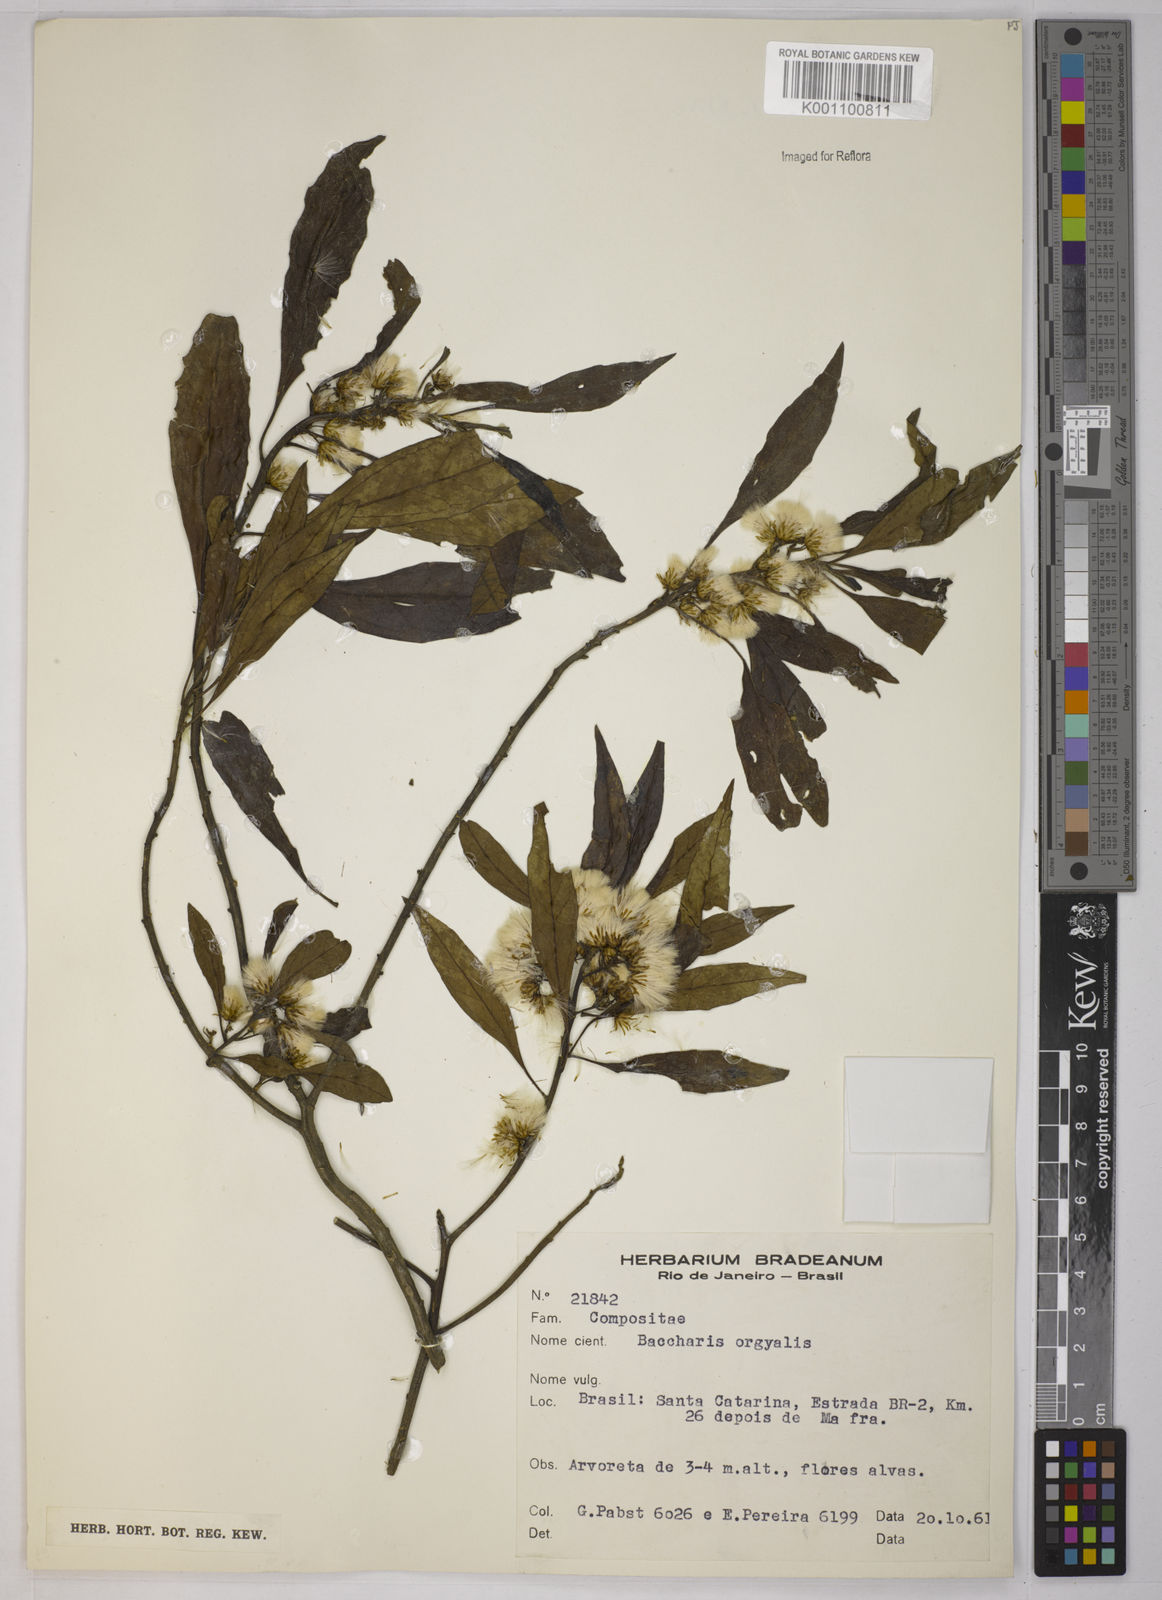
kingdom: Plantae
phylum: Tracheophyta
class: Magnoliopsida
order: Asterales
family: Asteraceae
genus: Baccharis
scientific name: Baccharis dentata
